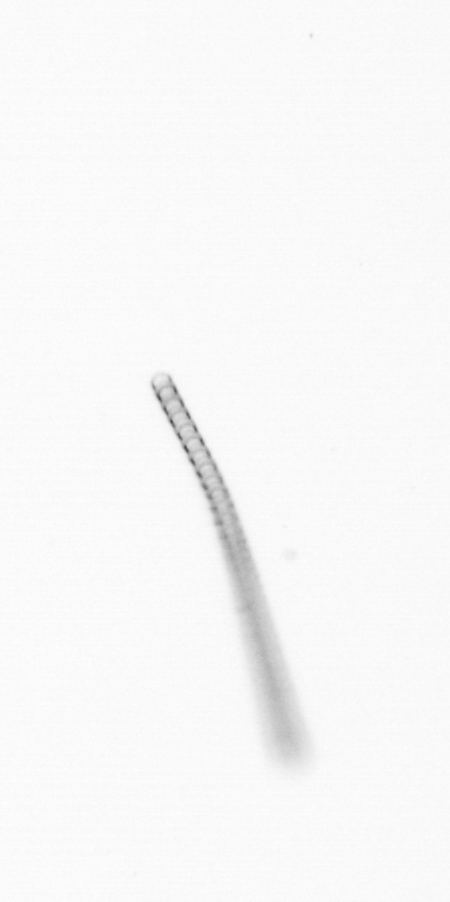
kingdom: Chromista
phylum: Ochrophyta
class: Bacillariophyceae
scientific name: Bacillariophyceae
